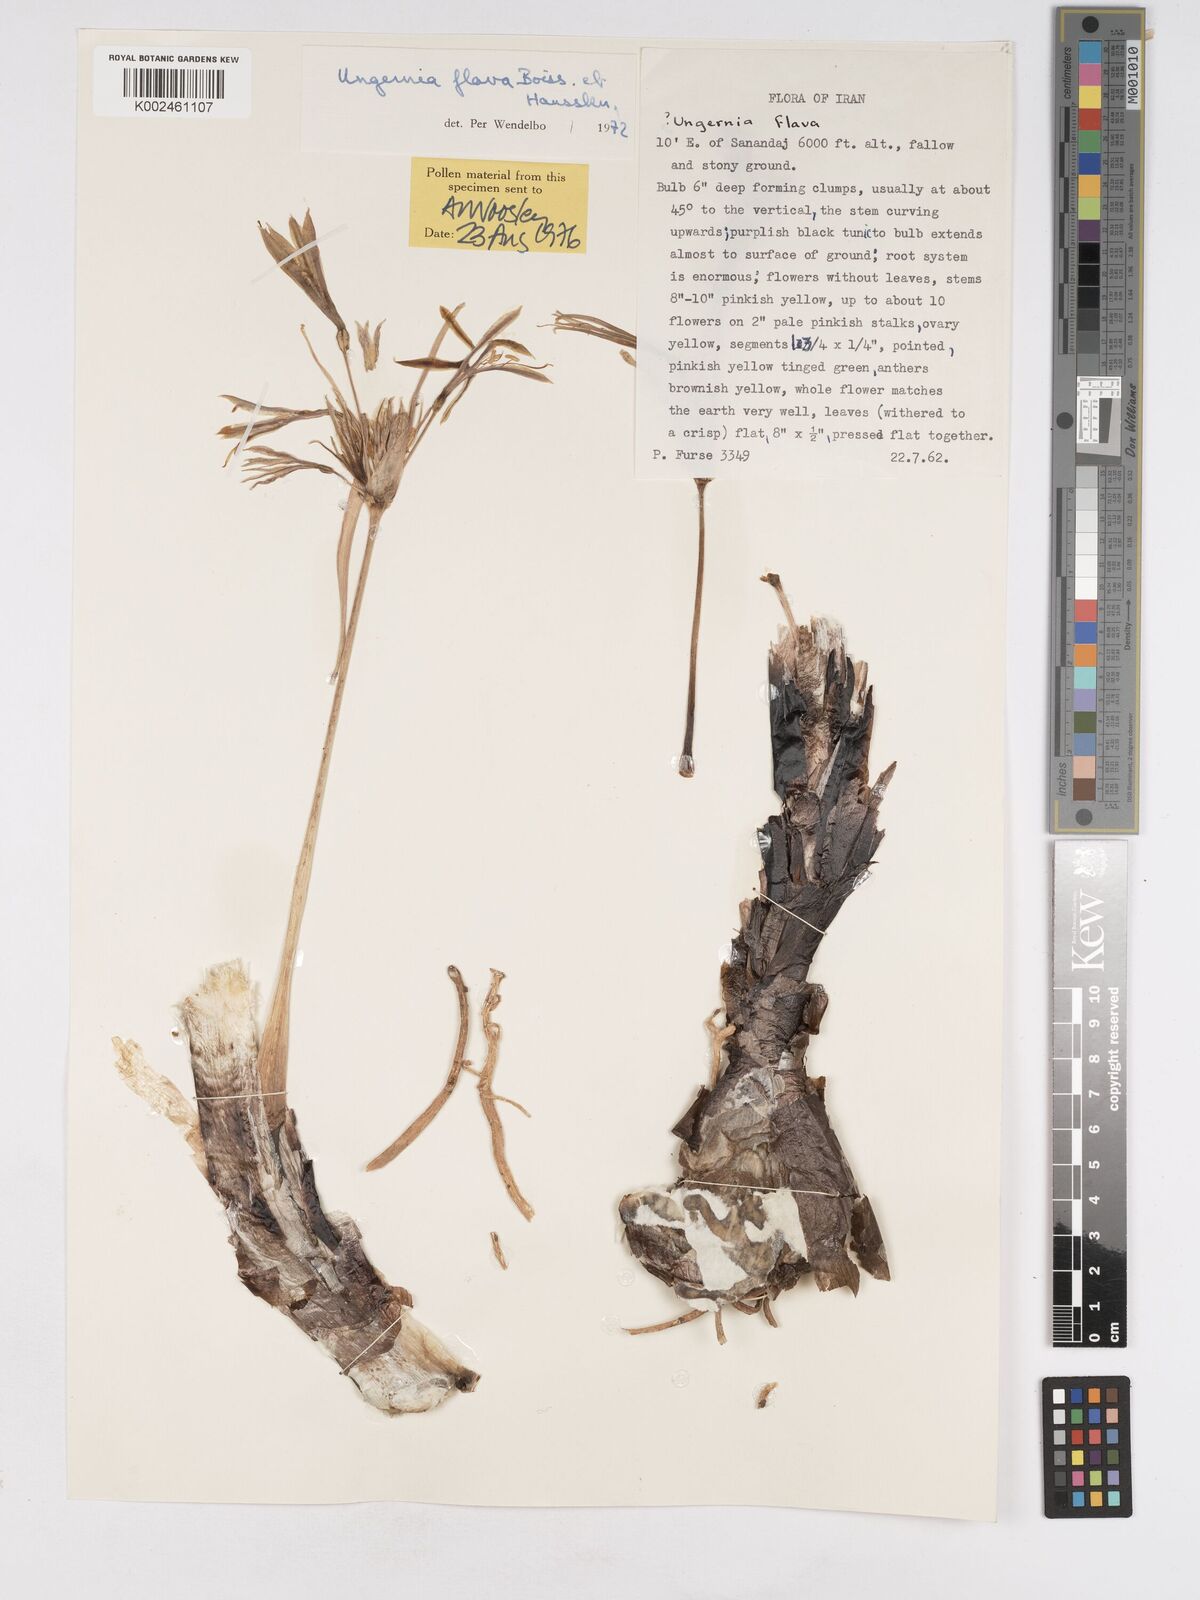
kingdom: Plantae
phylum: Tracheophyta
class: Liliopsida
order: Asparagales
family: Amaryllidaceae
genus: Ungernia
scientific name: Ungernia flava
